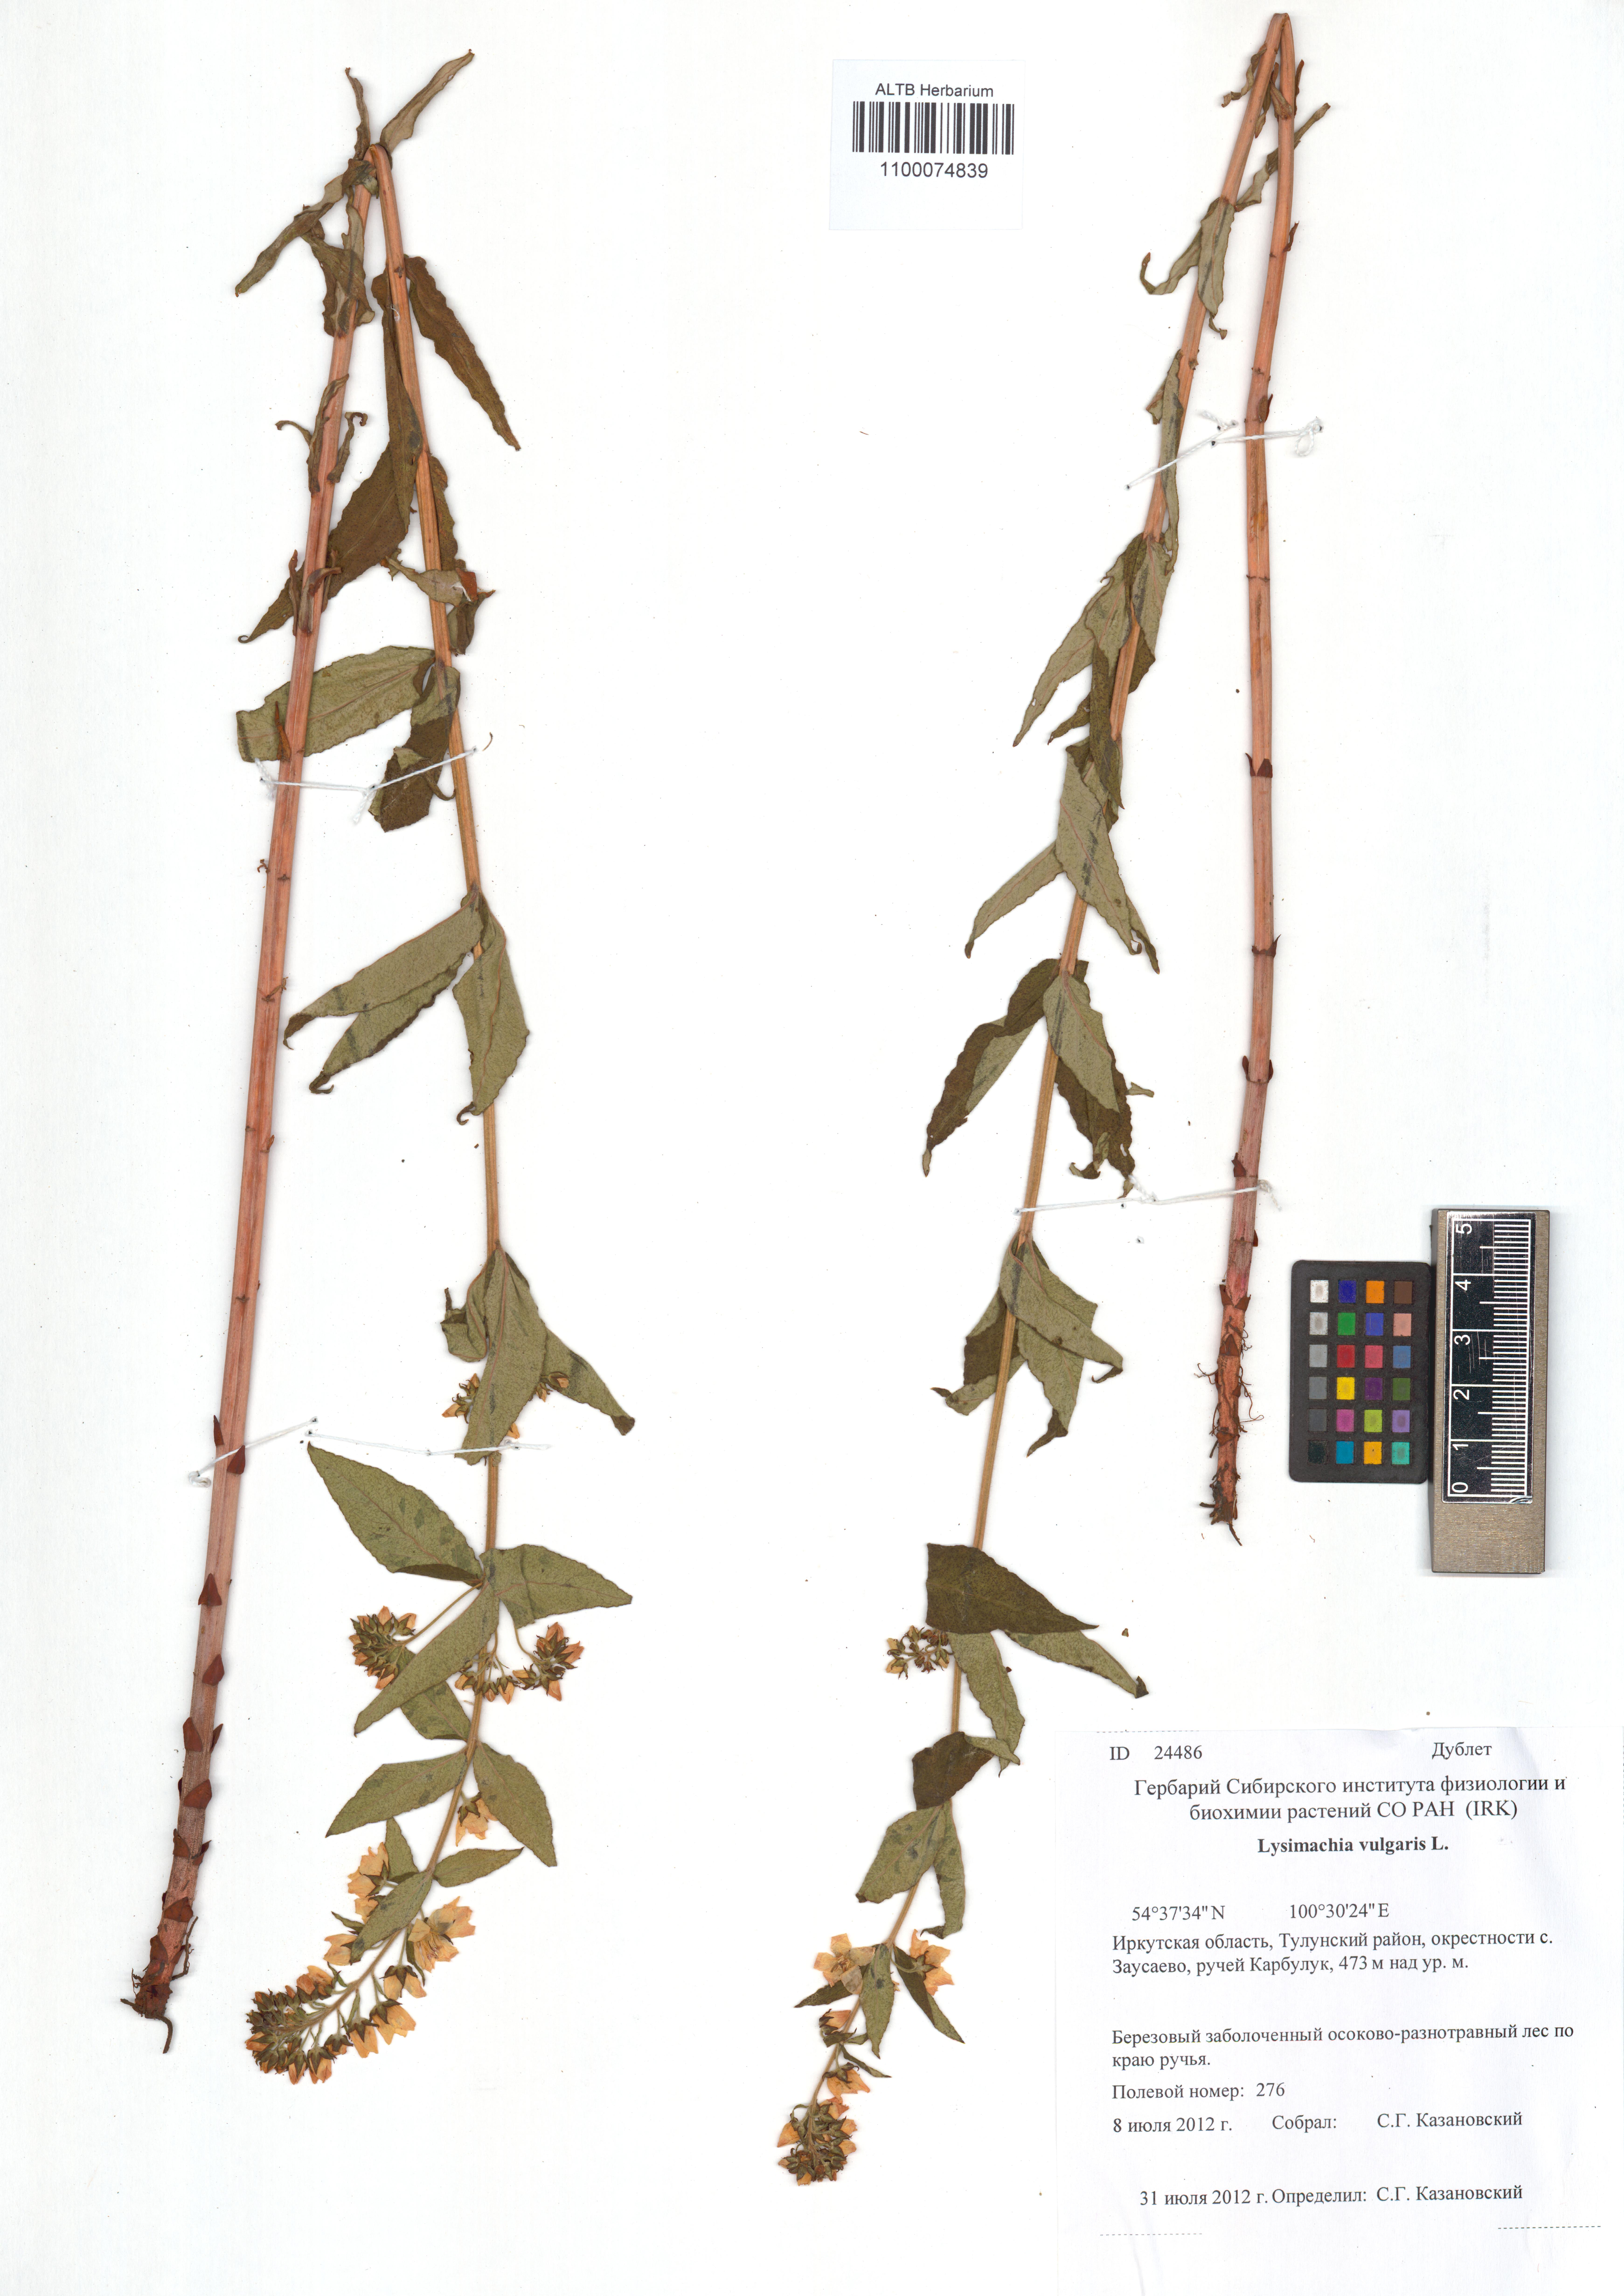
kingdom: Plantae
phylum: Tracheophyta
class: Magnoliopsida
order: Ericales
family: Primulaceae
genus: Lysimachia
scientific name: Lysimachia vulgaris
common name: Yellow loosestrife
